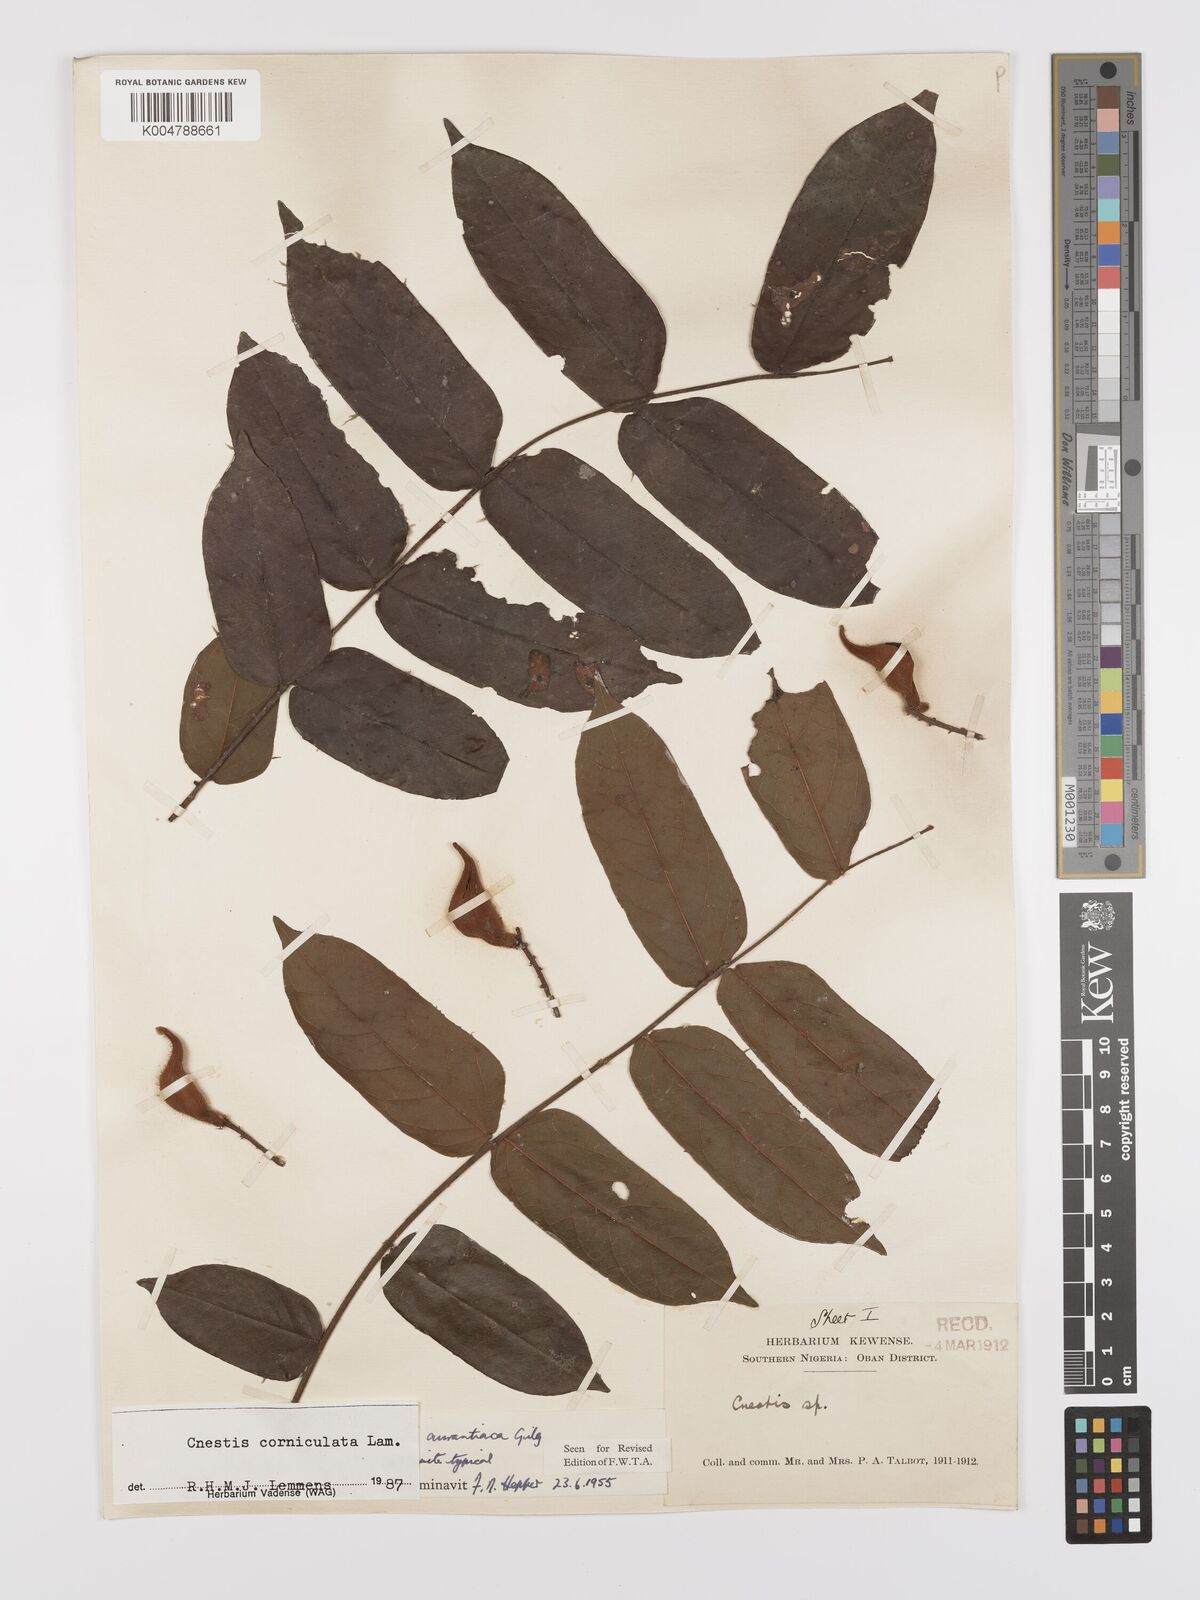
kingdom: Plantae
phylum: Tracheophyta
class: Magnoliopsida
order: Oxalidales
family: Connaraceae
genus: Cnestis
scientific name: Cnestis corniculata
